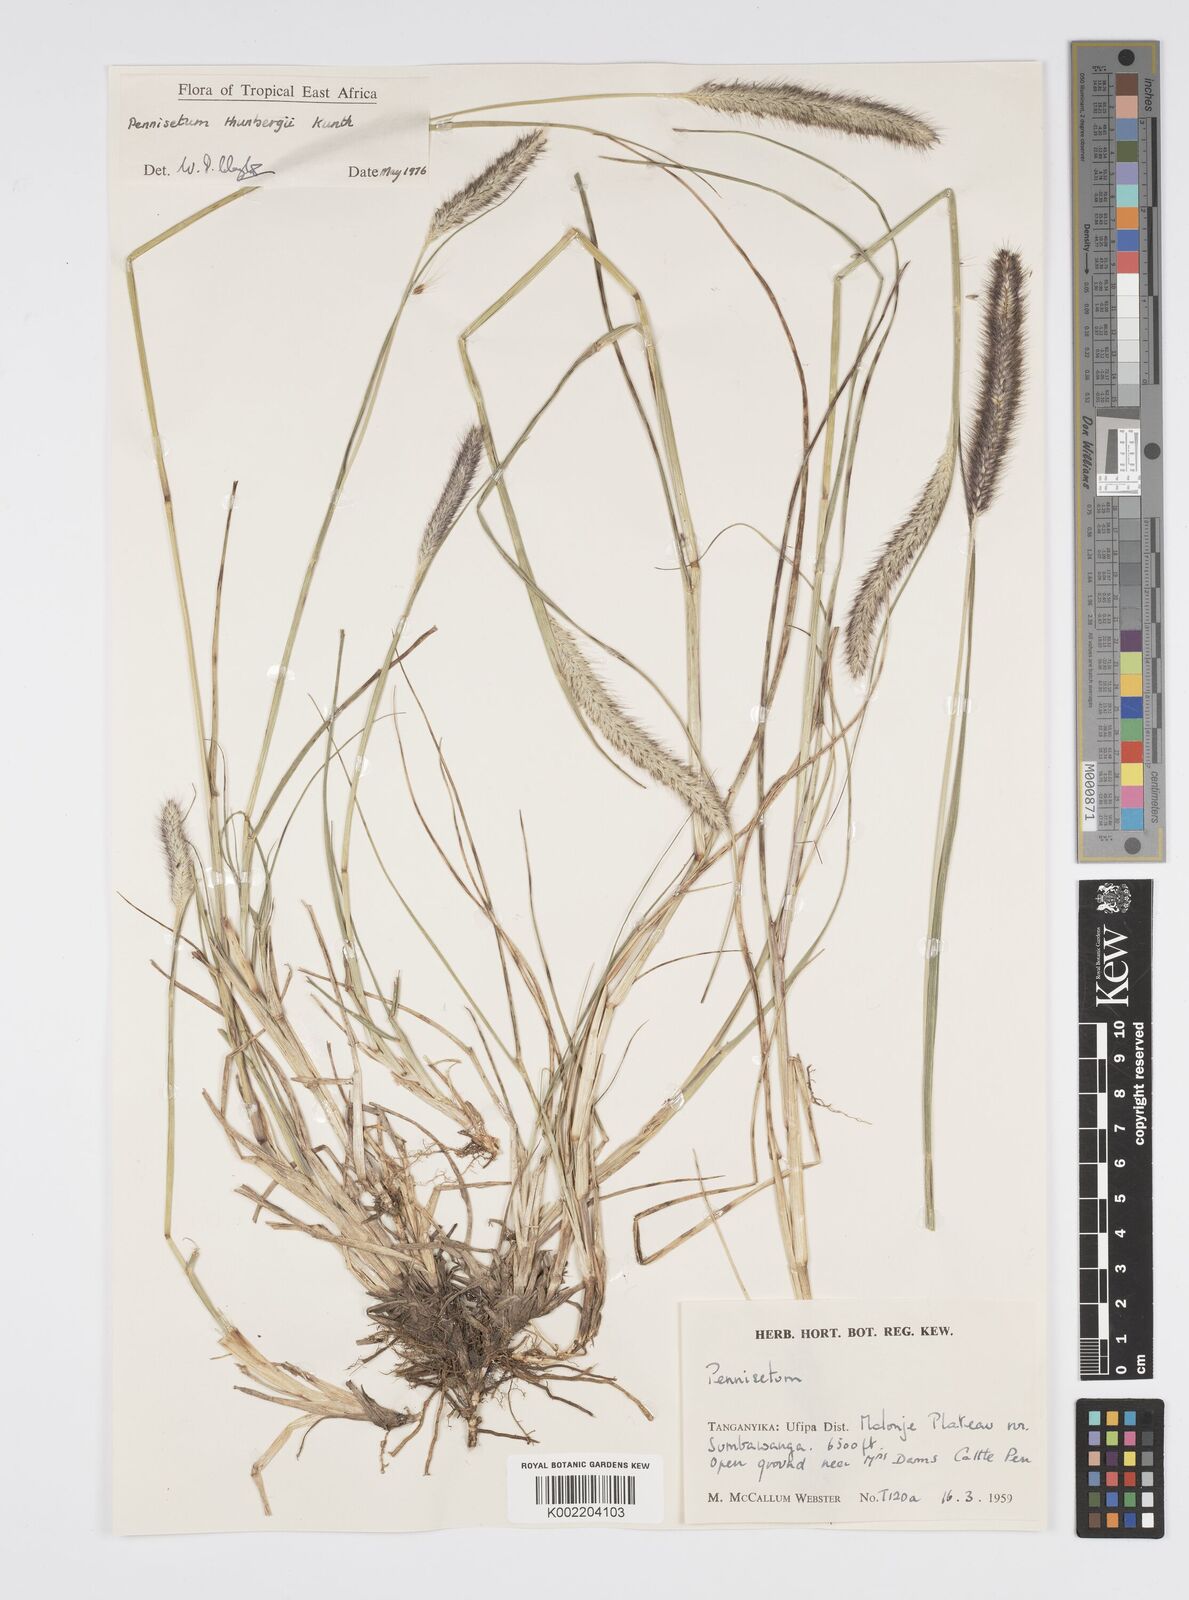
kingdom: Plantae
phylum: Tracheophyta
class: Liliopsida
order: Poales
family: Poaceae
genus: Cenchrus
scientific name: Cenchrus geniculatus
